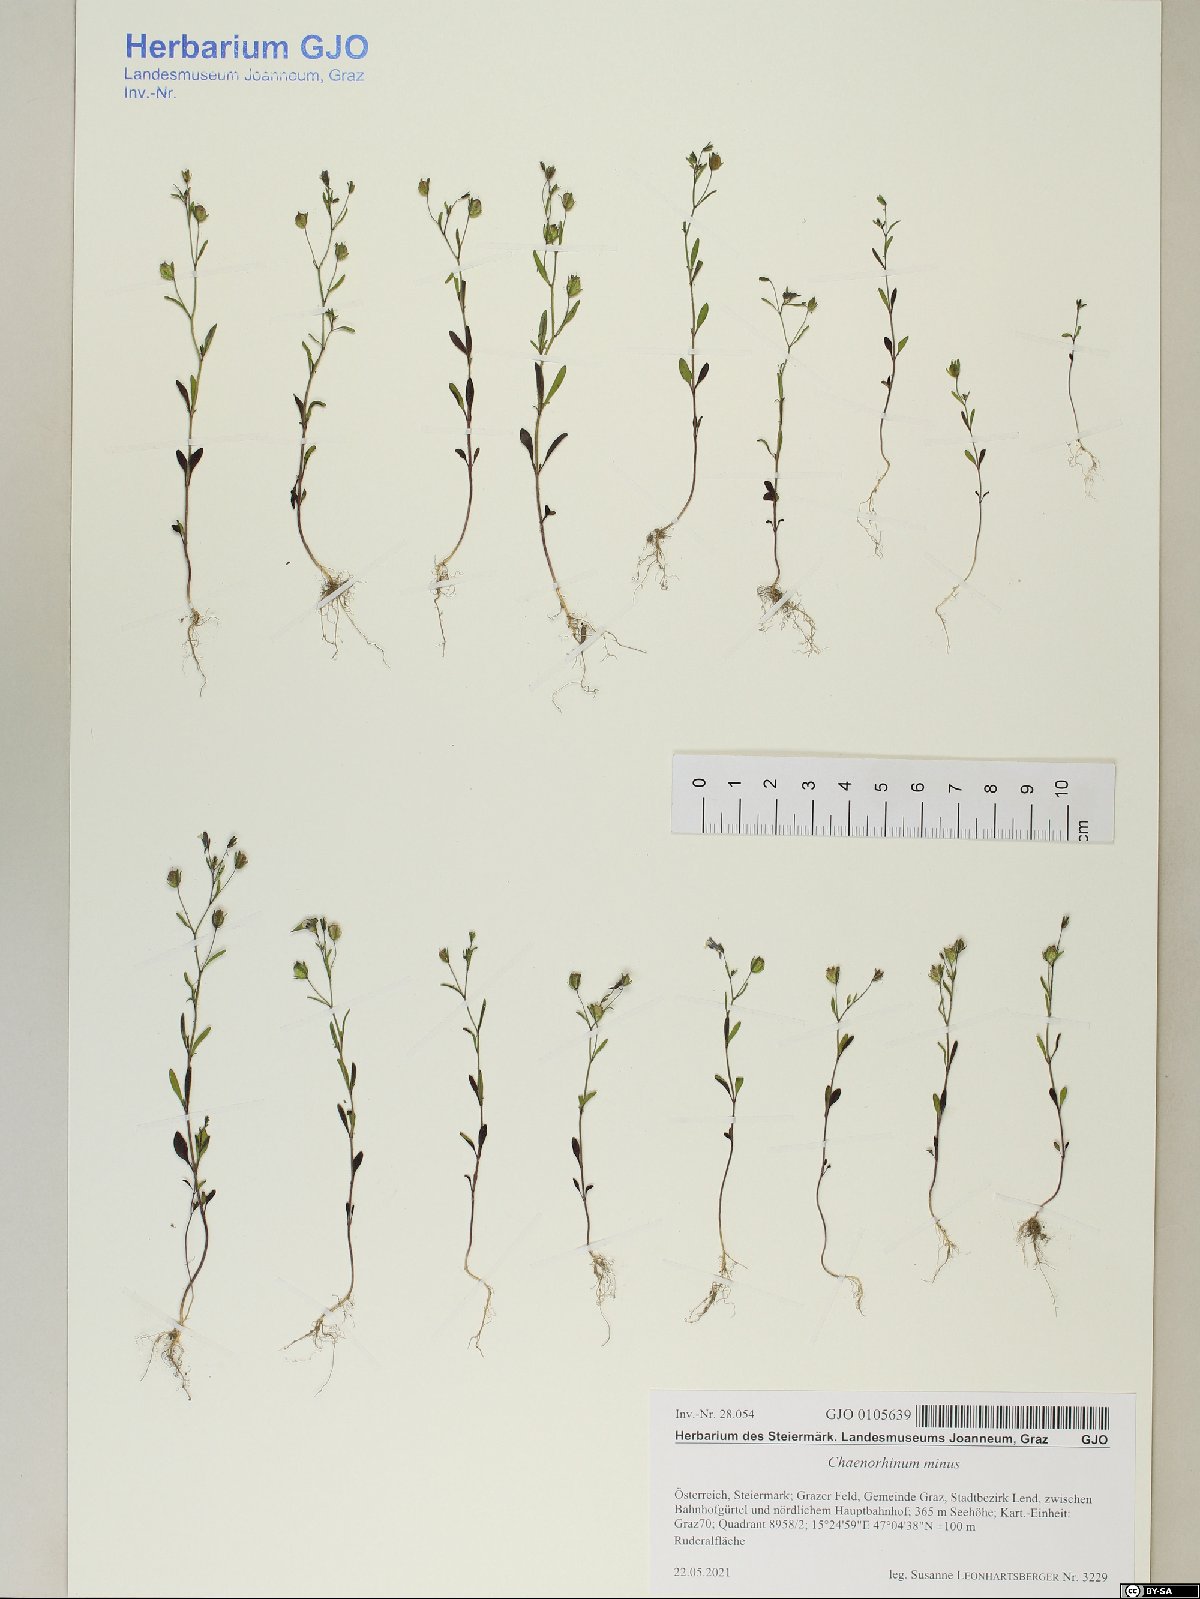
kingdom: Plantae
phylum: Tracheophyta
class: Magnoliopsida
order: Lamiales
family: Plantaginaceae
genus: Chaenorhinum
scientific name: Chaenorhinum minus
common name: Dwarf snapdragon
